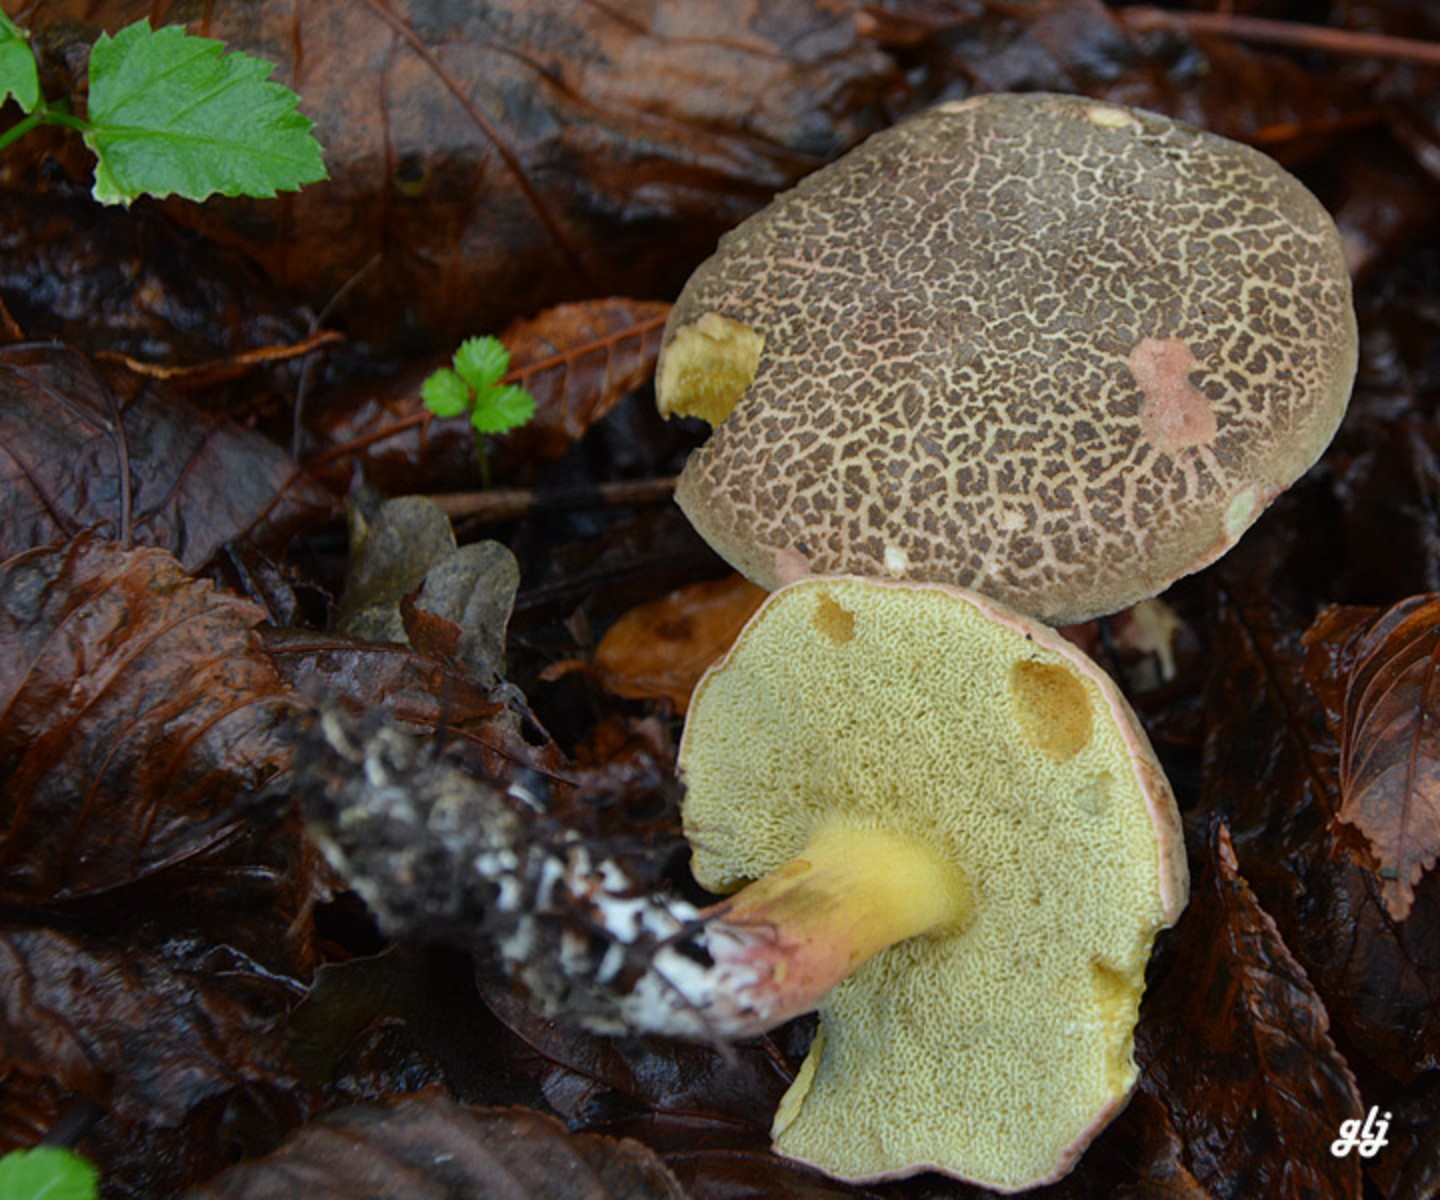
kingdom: Fungi
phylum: Basidiomycota
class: Agaricomycetes
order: Boletales
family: Boletaceae
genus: Xerocomellus
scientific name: Xerocomellus
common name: dværgrørhat
